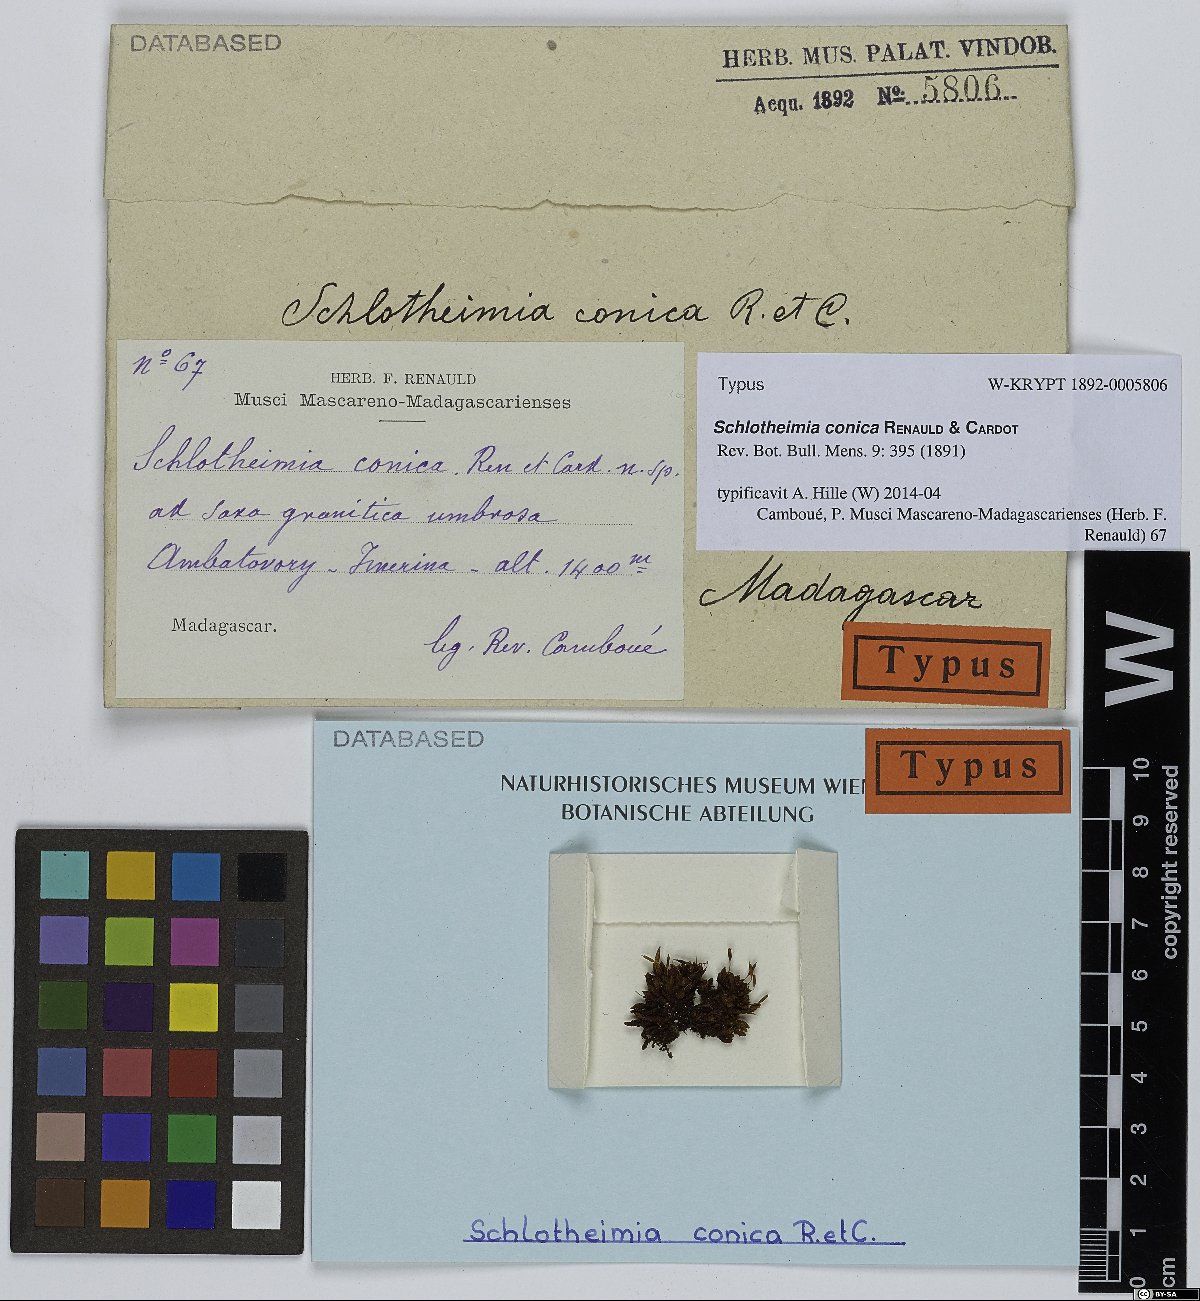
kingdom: Plantae
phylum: Bryophyta
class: Bryopsida
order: Orthotrichales
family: Orthotrichaceae
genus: Schlotheimia
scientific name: Schlotheimia conica
